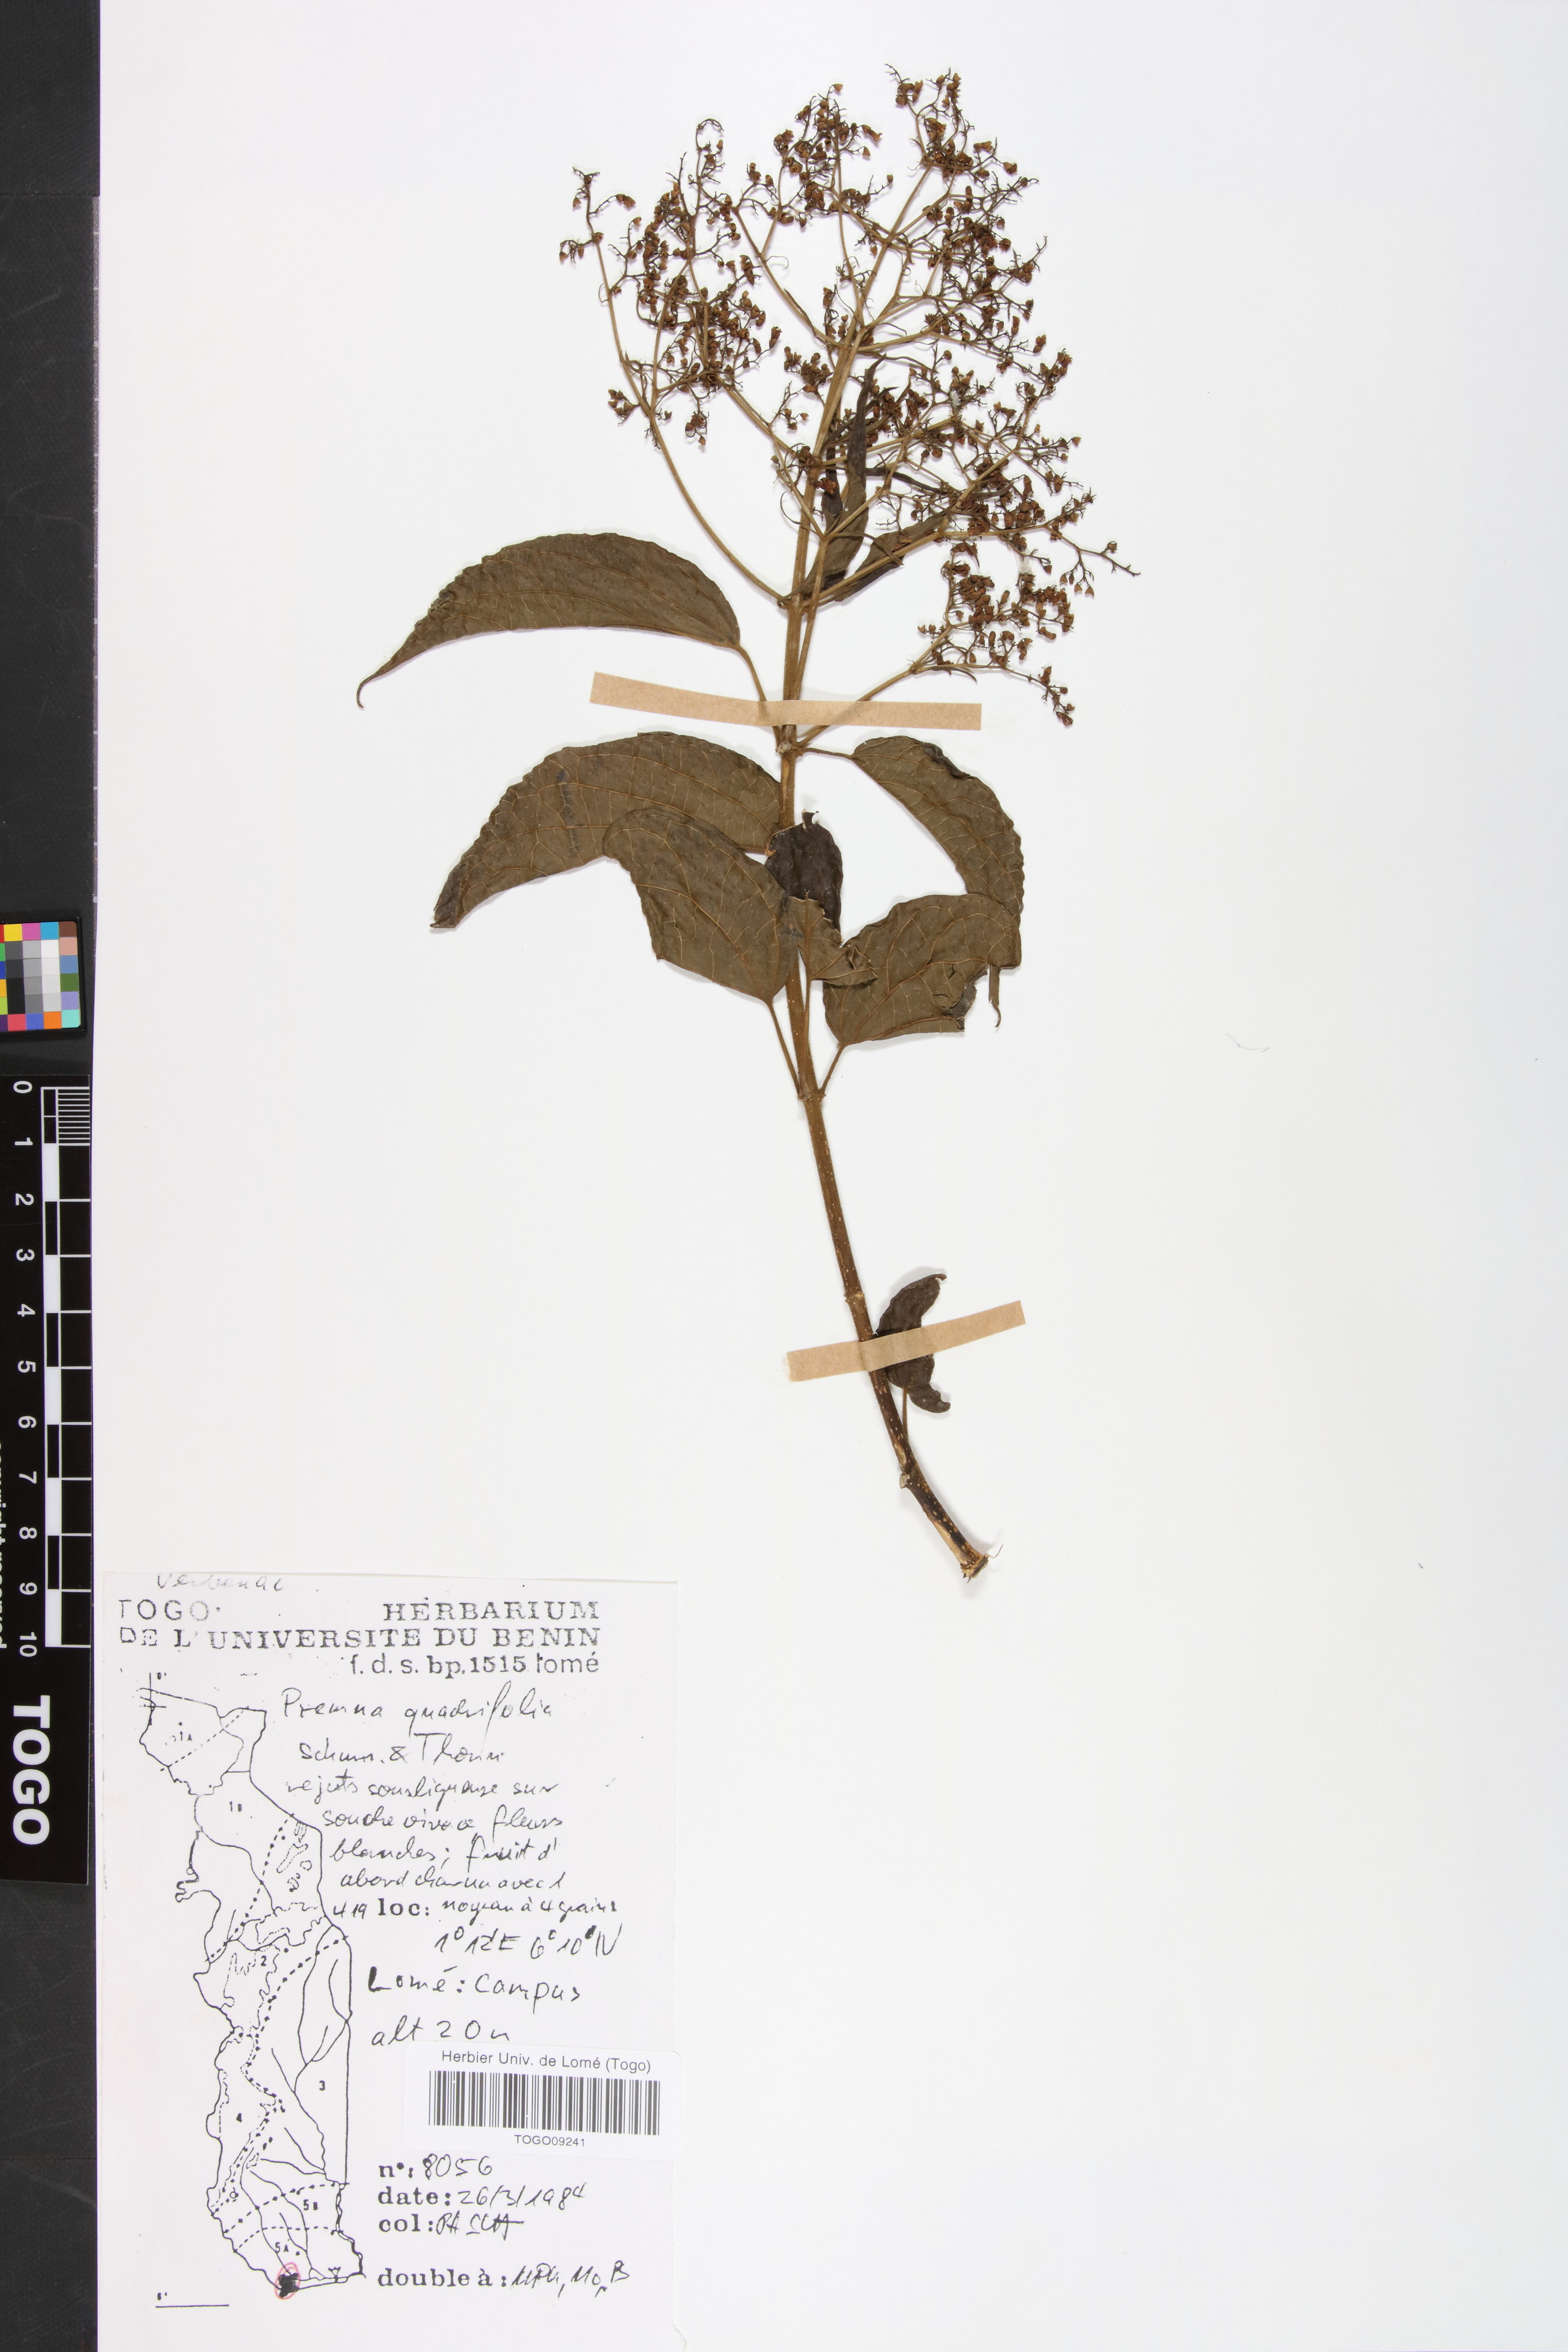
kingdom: Plantae
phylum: Tracheophyta
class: Magnoliopsida
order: Lamiales
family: Lamiaceae
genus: Premna
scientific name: Premna quadrifolia
